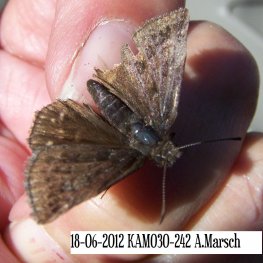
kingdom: Animalia
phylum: Arthropoda
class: Insecta
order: Lepidoptera
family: Hesperiidae
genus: Erynnis
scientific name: Erynnis icelus
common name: Dreamy Duskywing
